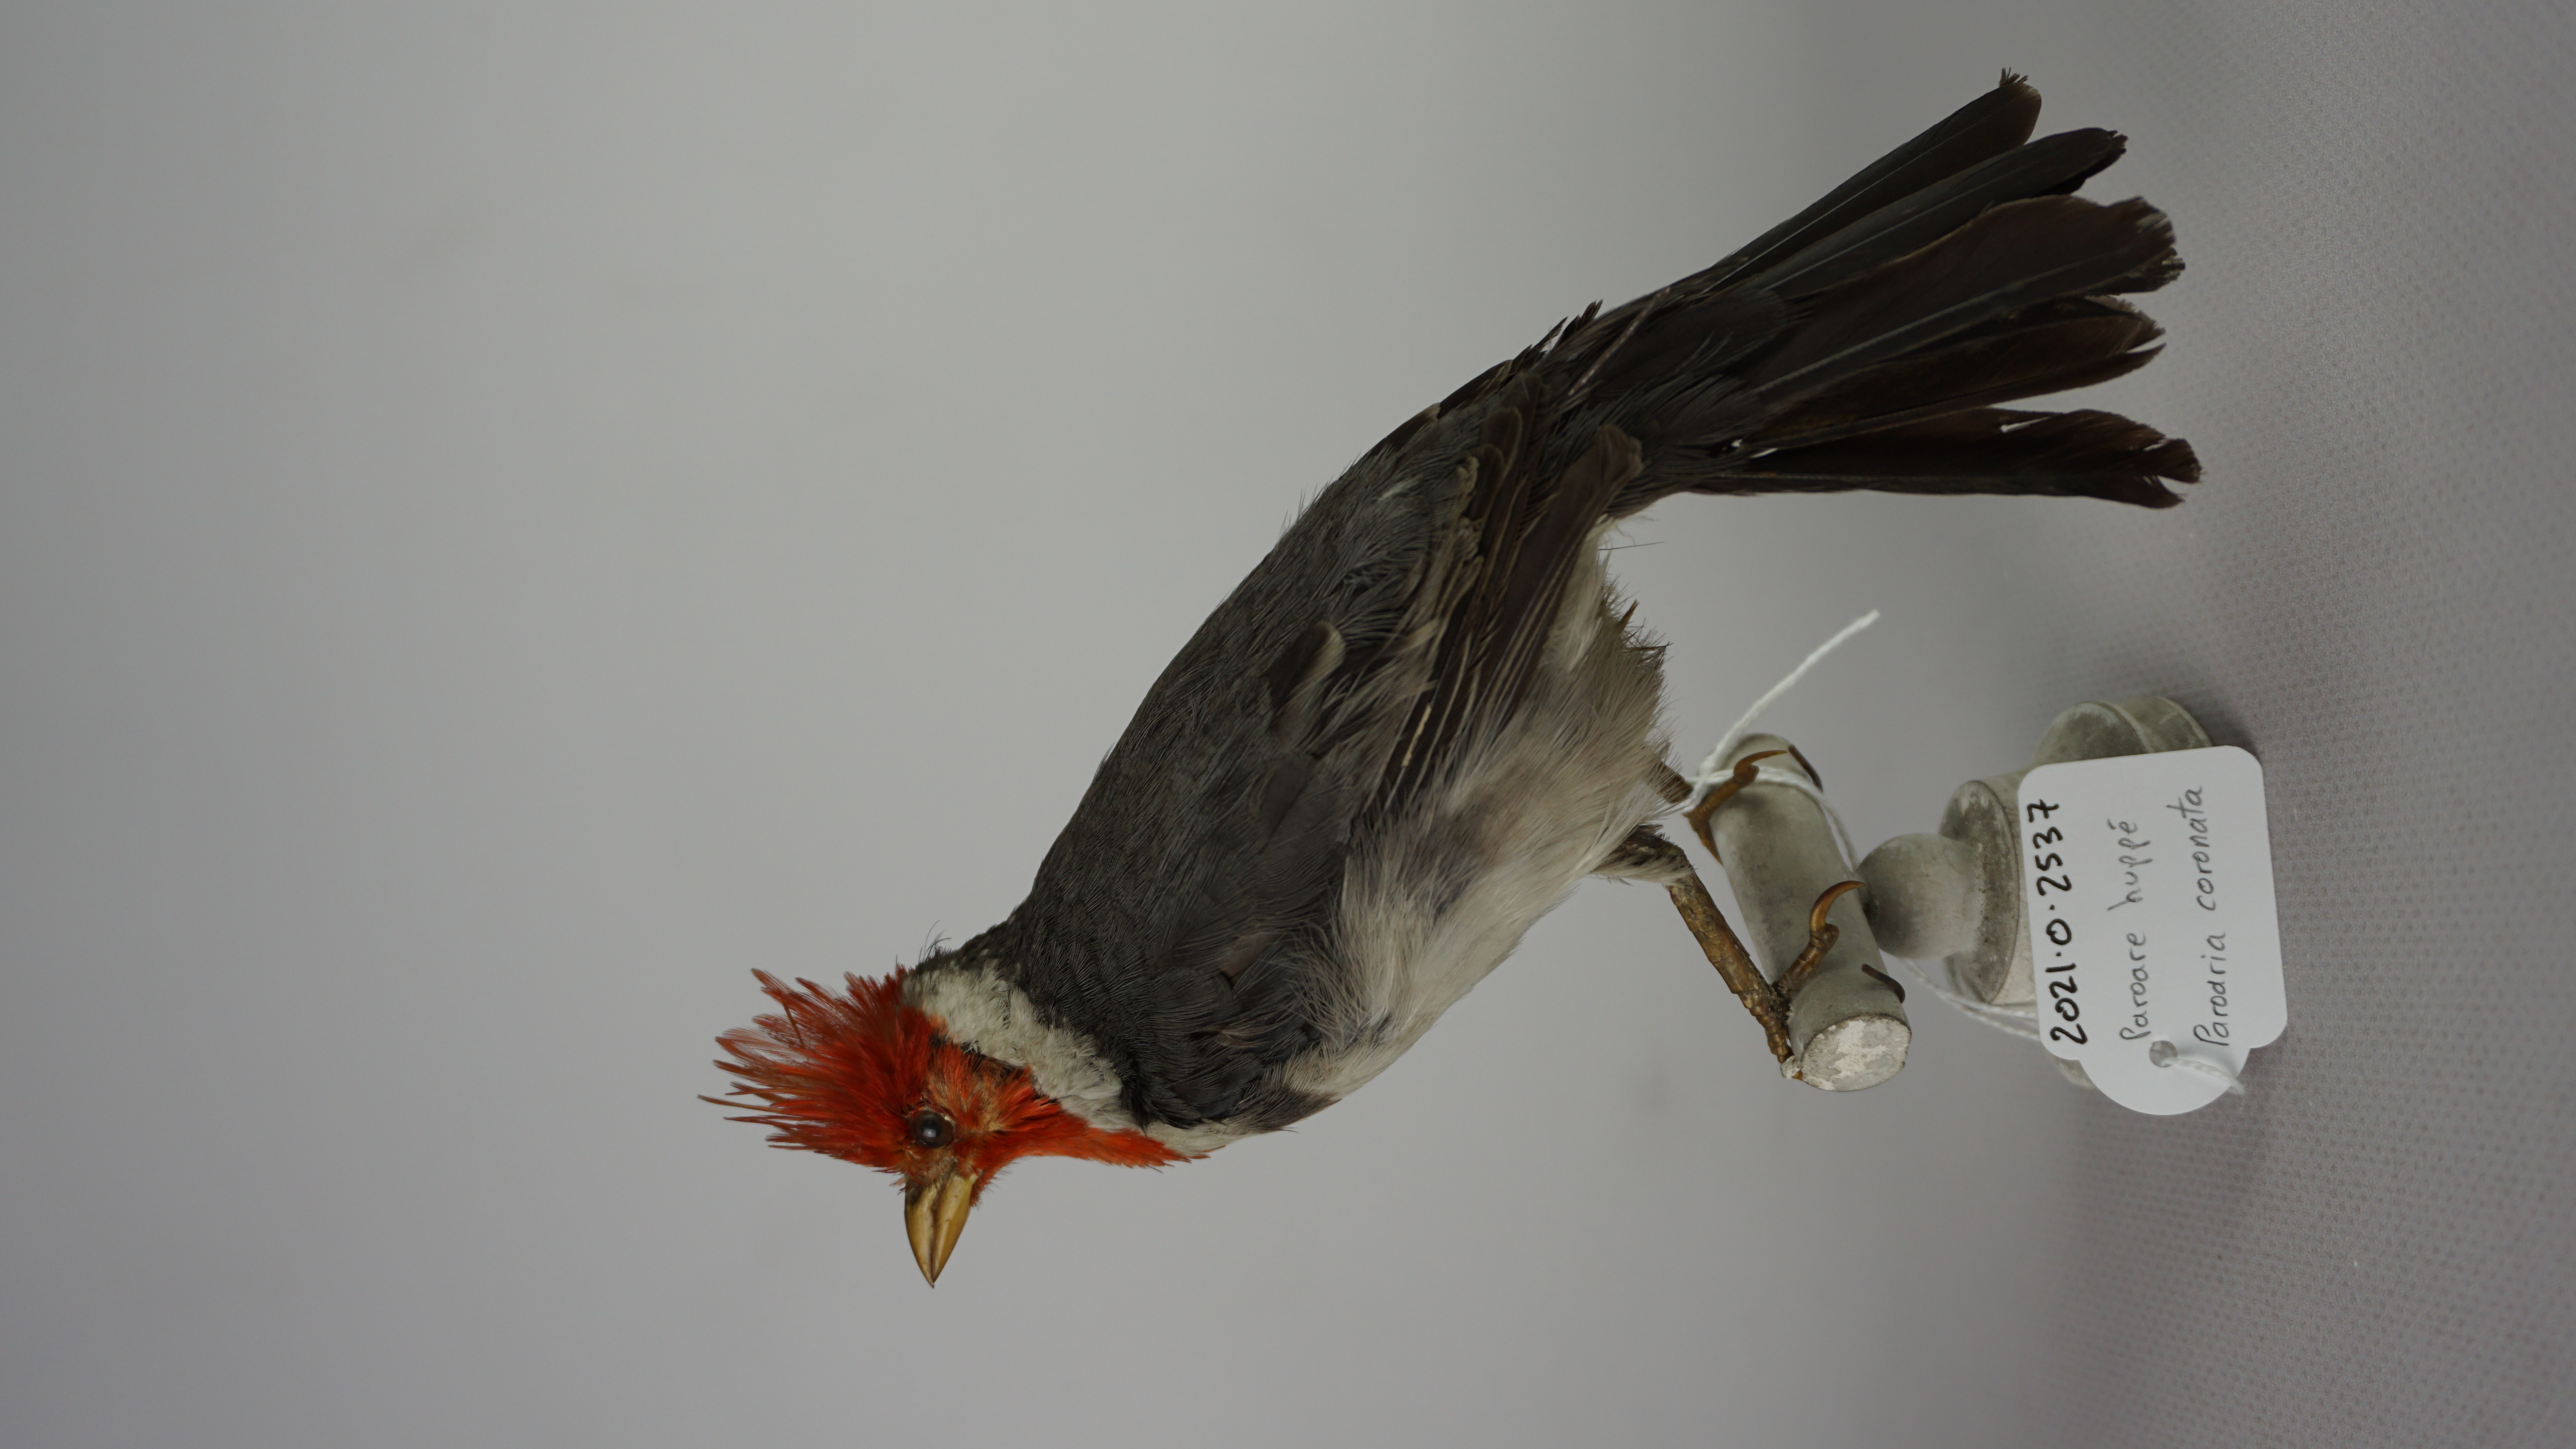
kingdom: Animalia
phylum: Chordata
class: Aves
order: Passeriformes
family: Thraupidae
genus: Paroaria
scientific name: Paroaria coronata
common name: Red-crested cardinal
